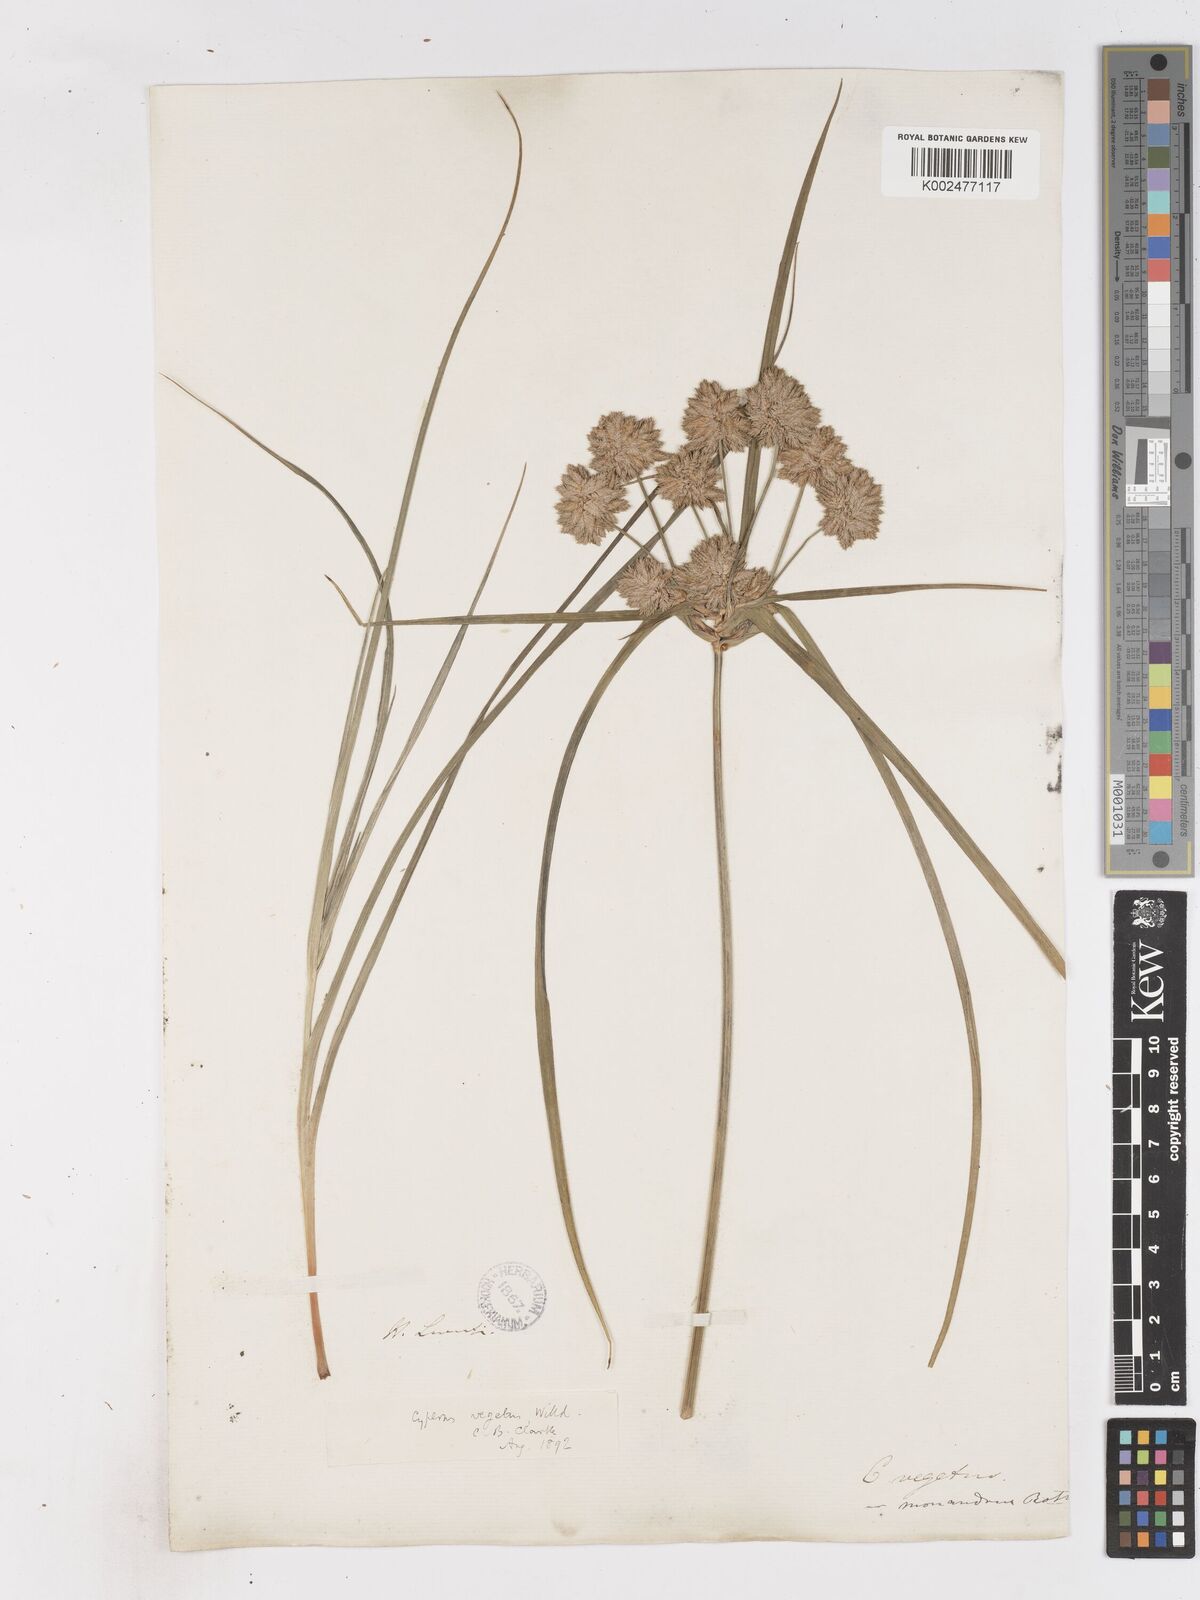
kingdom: Plantae
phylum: Tracheophyta
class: Liliopsida
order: Poales
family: Cyperaceae
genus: Cyperus
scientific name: Cyperus eragrostis
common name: Tall flatsedge
